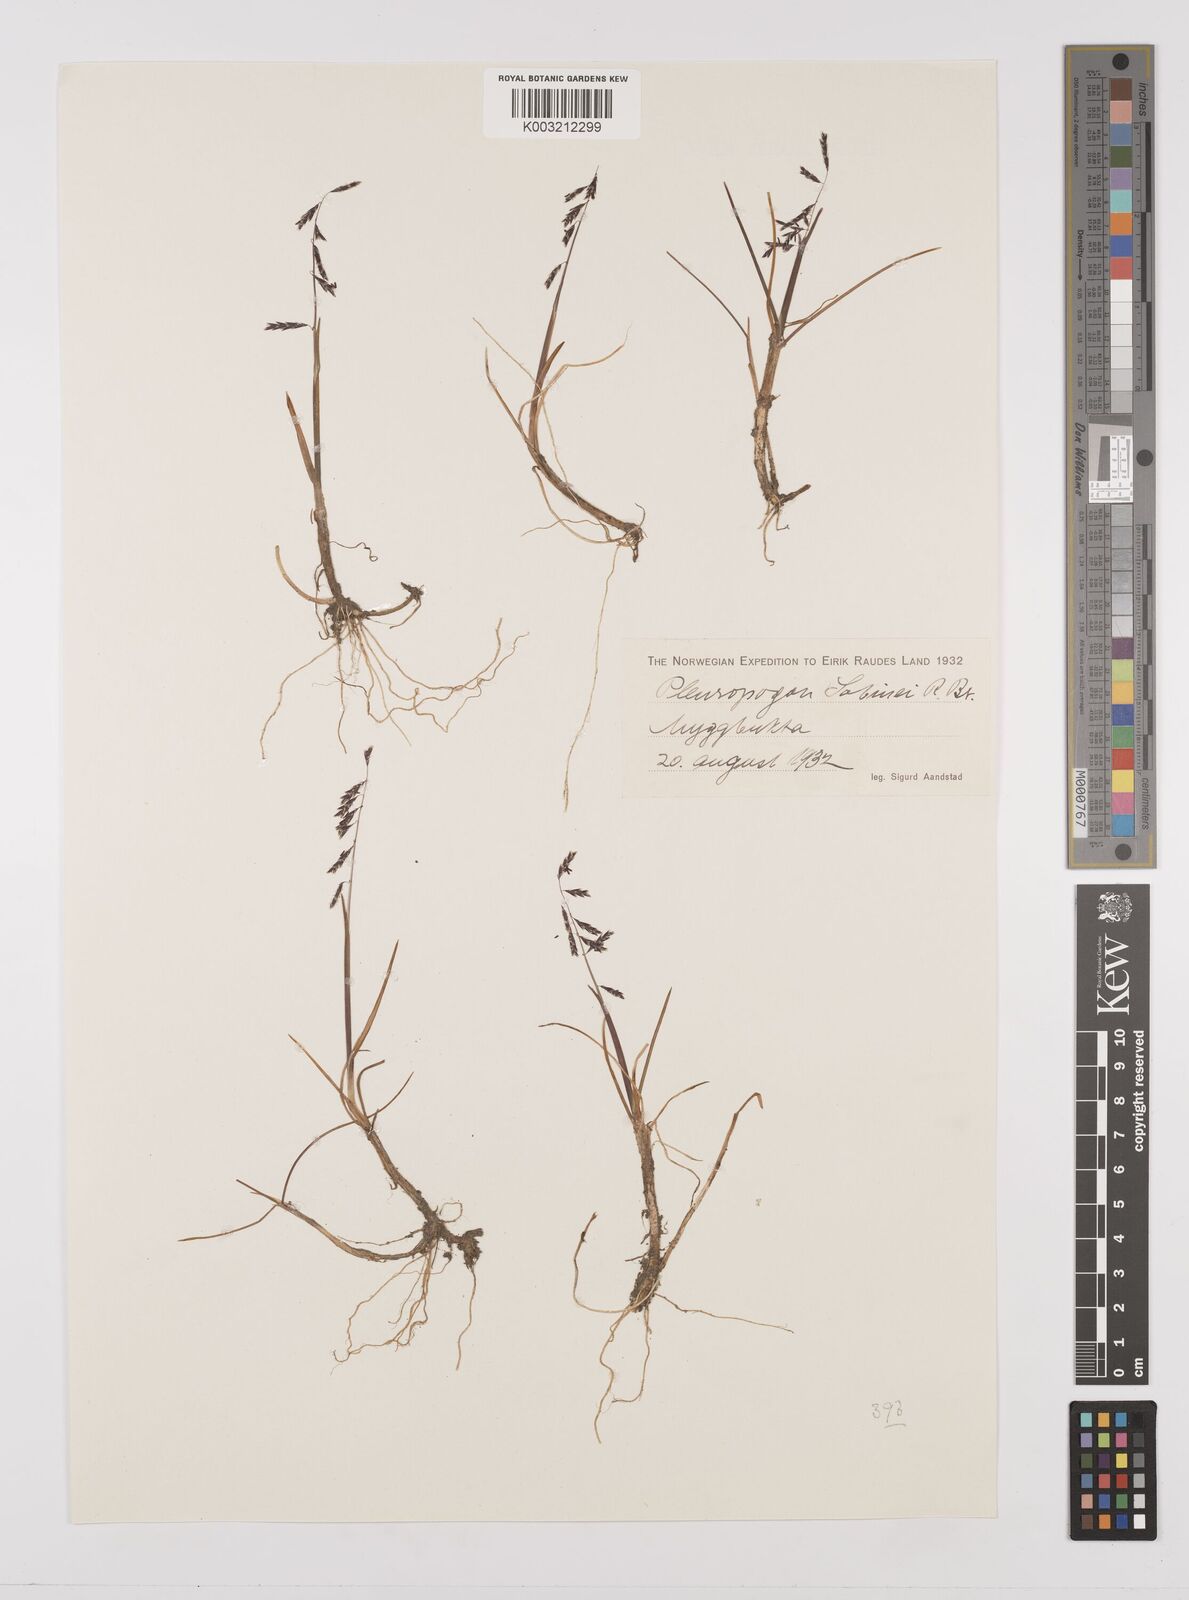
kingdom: Plantae
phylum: Tracheophyta
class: Liliopsida
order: Poales
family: Poaceae
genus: Pleuropogon
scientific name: Pleuropogon sabinei
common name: Sabine's false semaphoregrass
